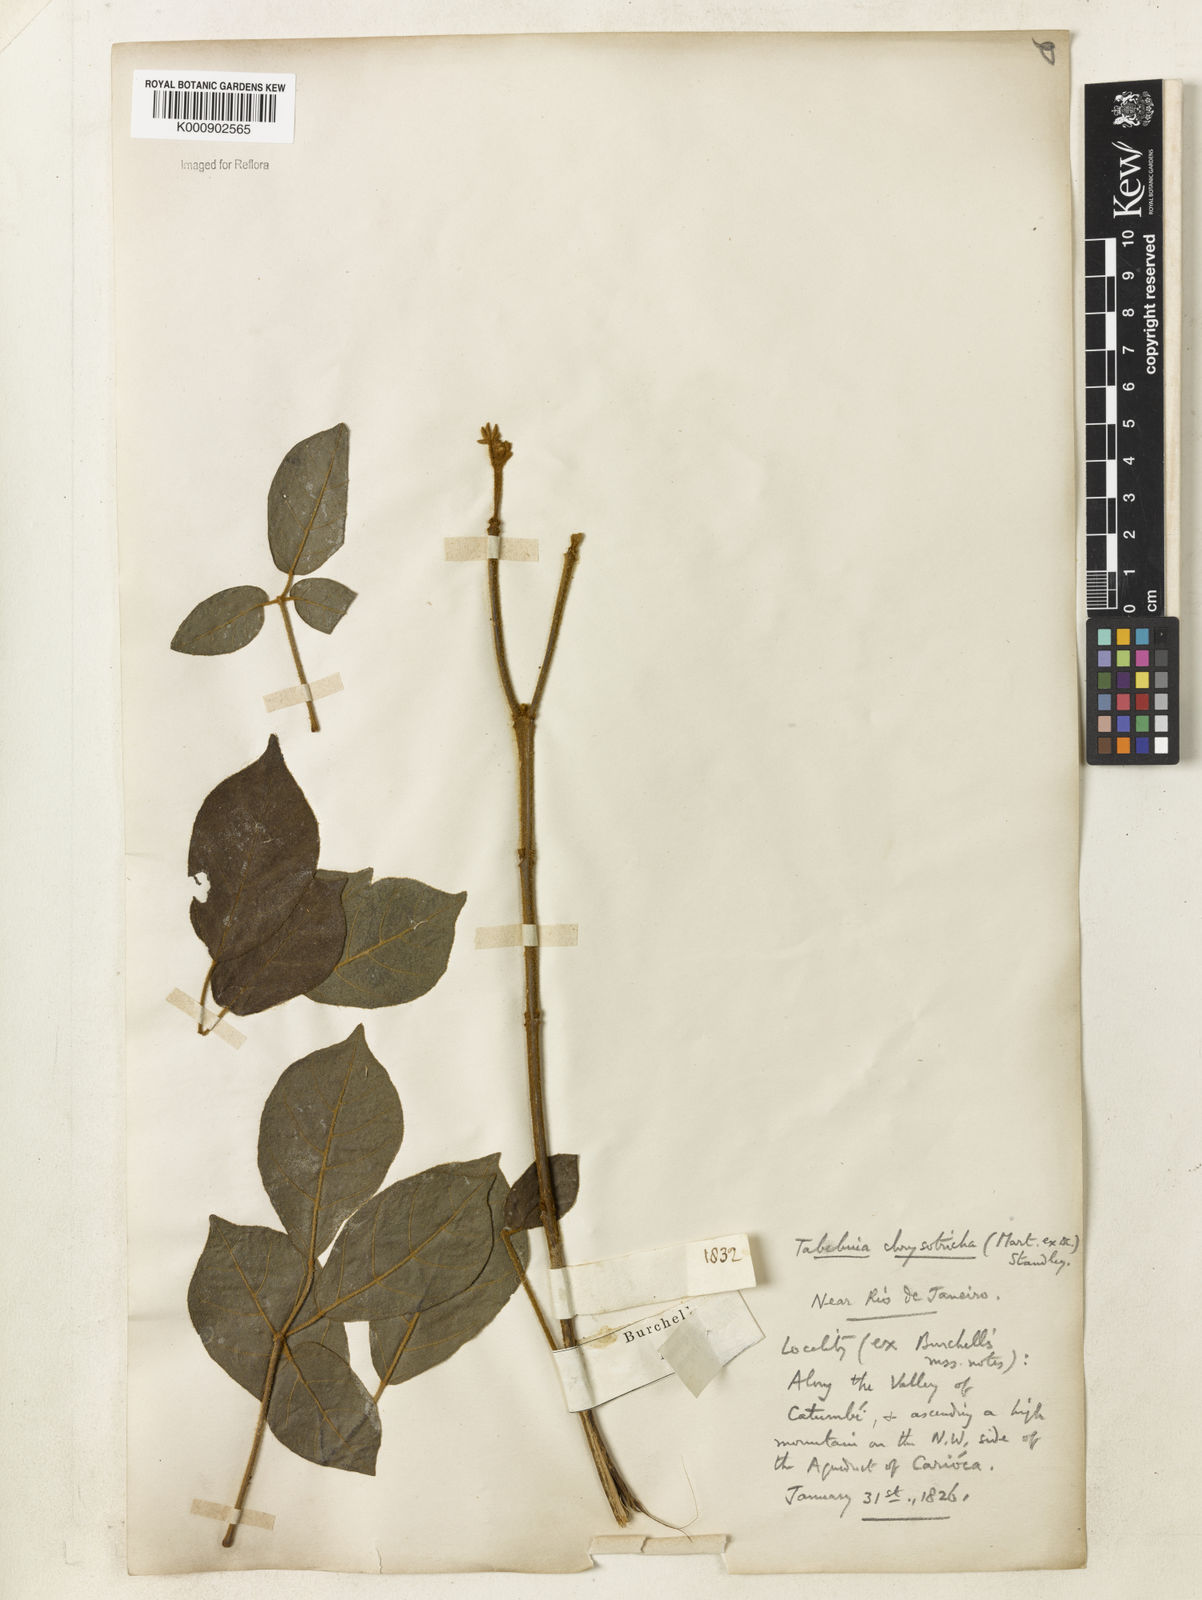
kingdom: Plantae
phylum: Tracheophyta
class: Magnoliopsida
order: Lamiales
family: Bignoniaceae
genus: Handroanthus
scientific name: Handroanthus chrysotrichus
